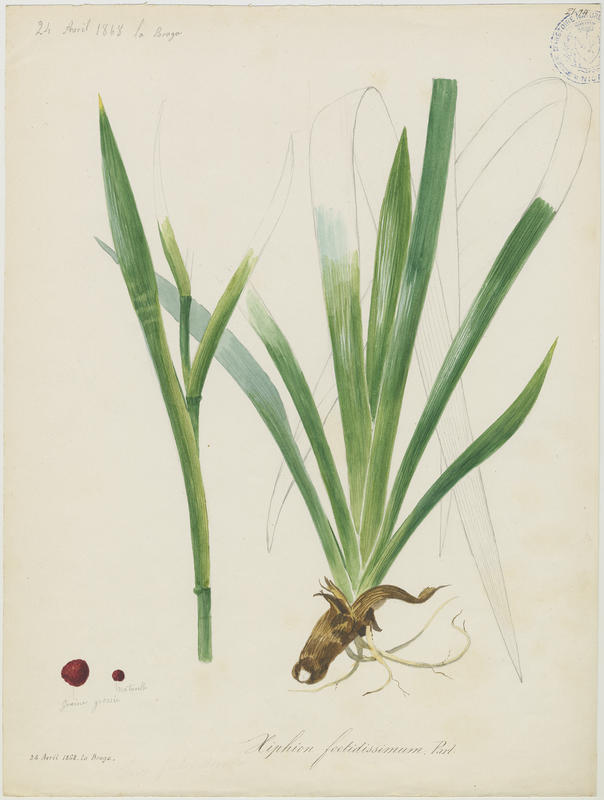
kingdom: Plantae
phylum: Tracheophyta
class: Liliopsida
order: Asparagales
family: Iridaceae
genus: Iris
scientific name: Iris foetidissima
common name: Stinking iris
